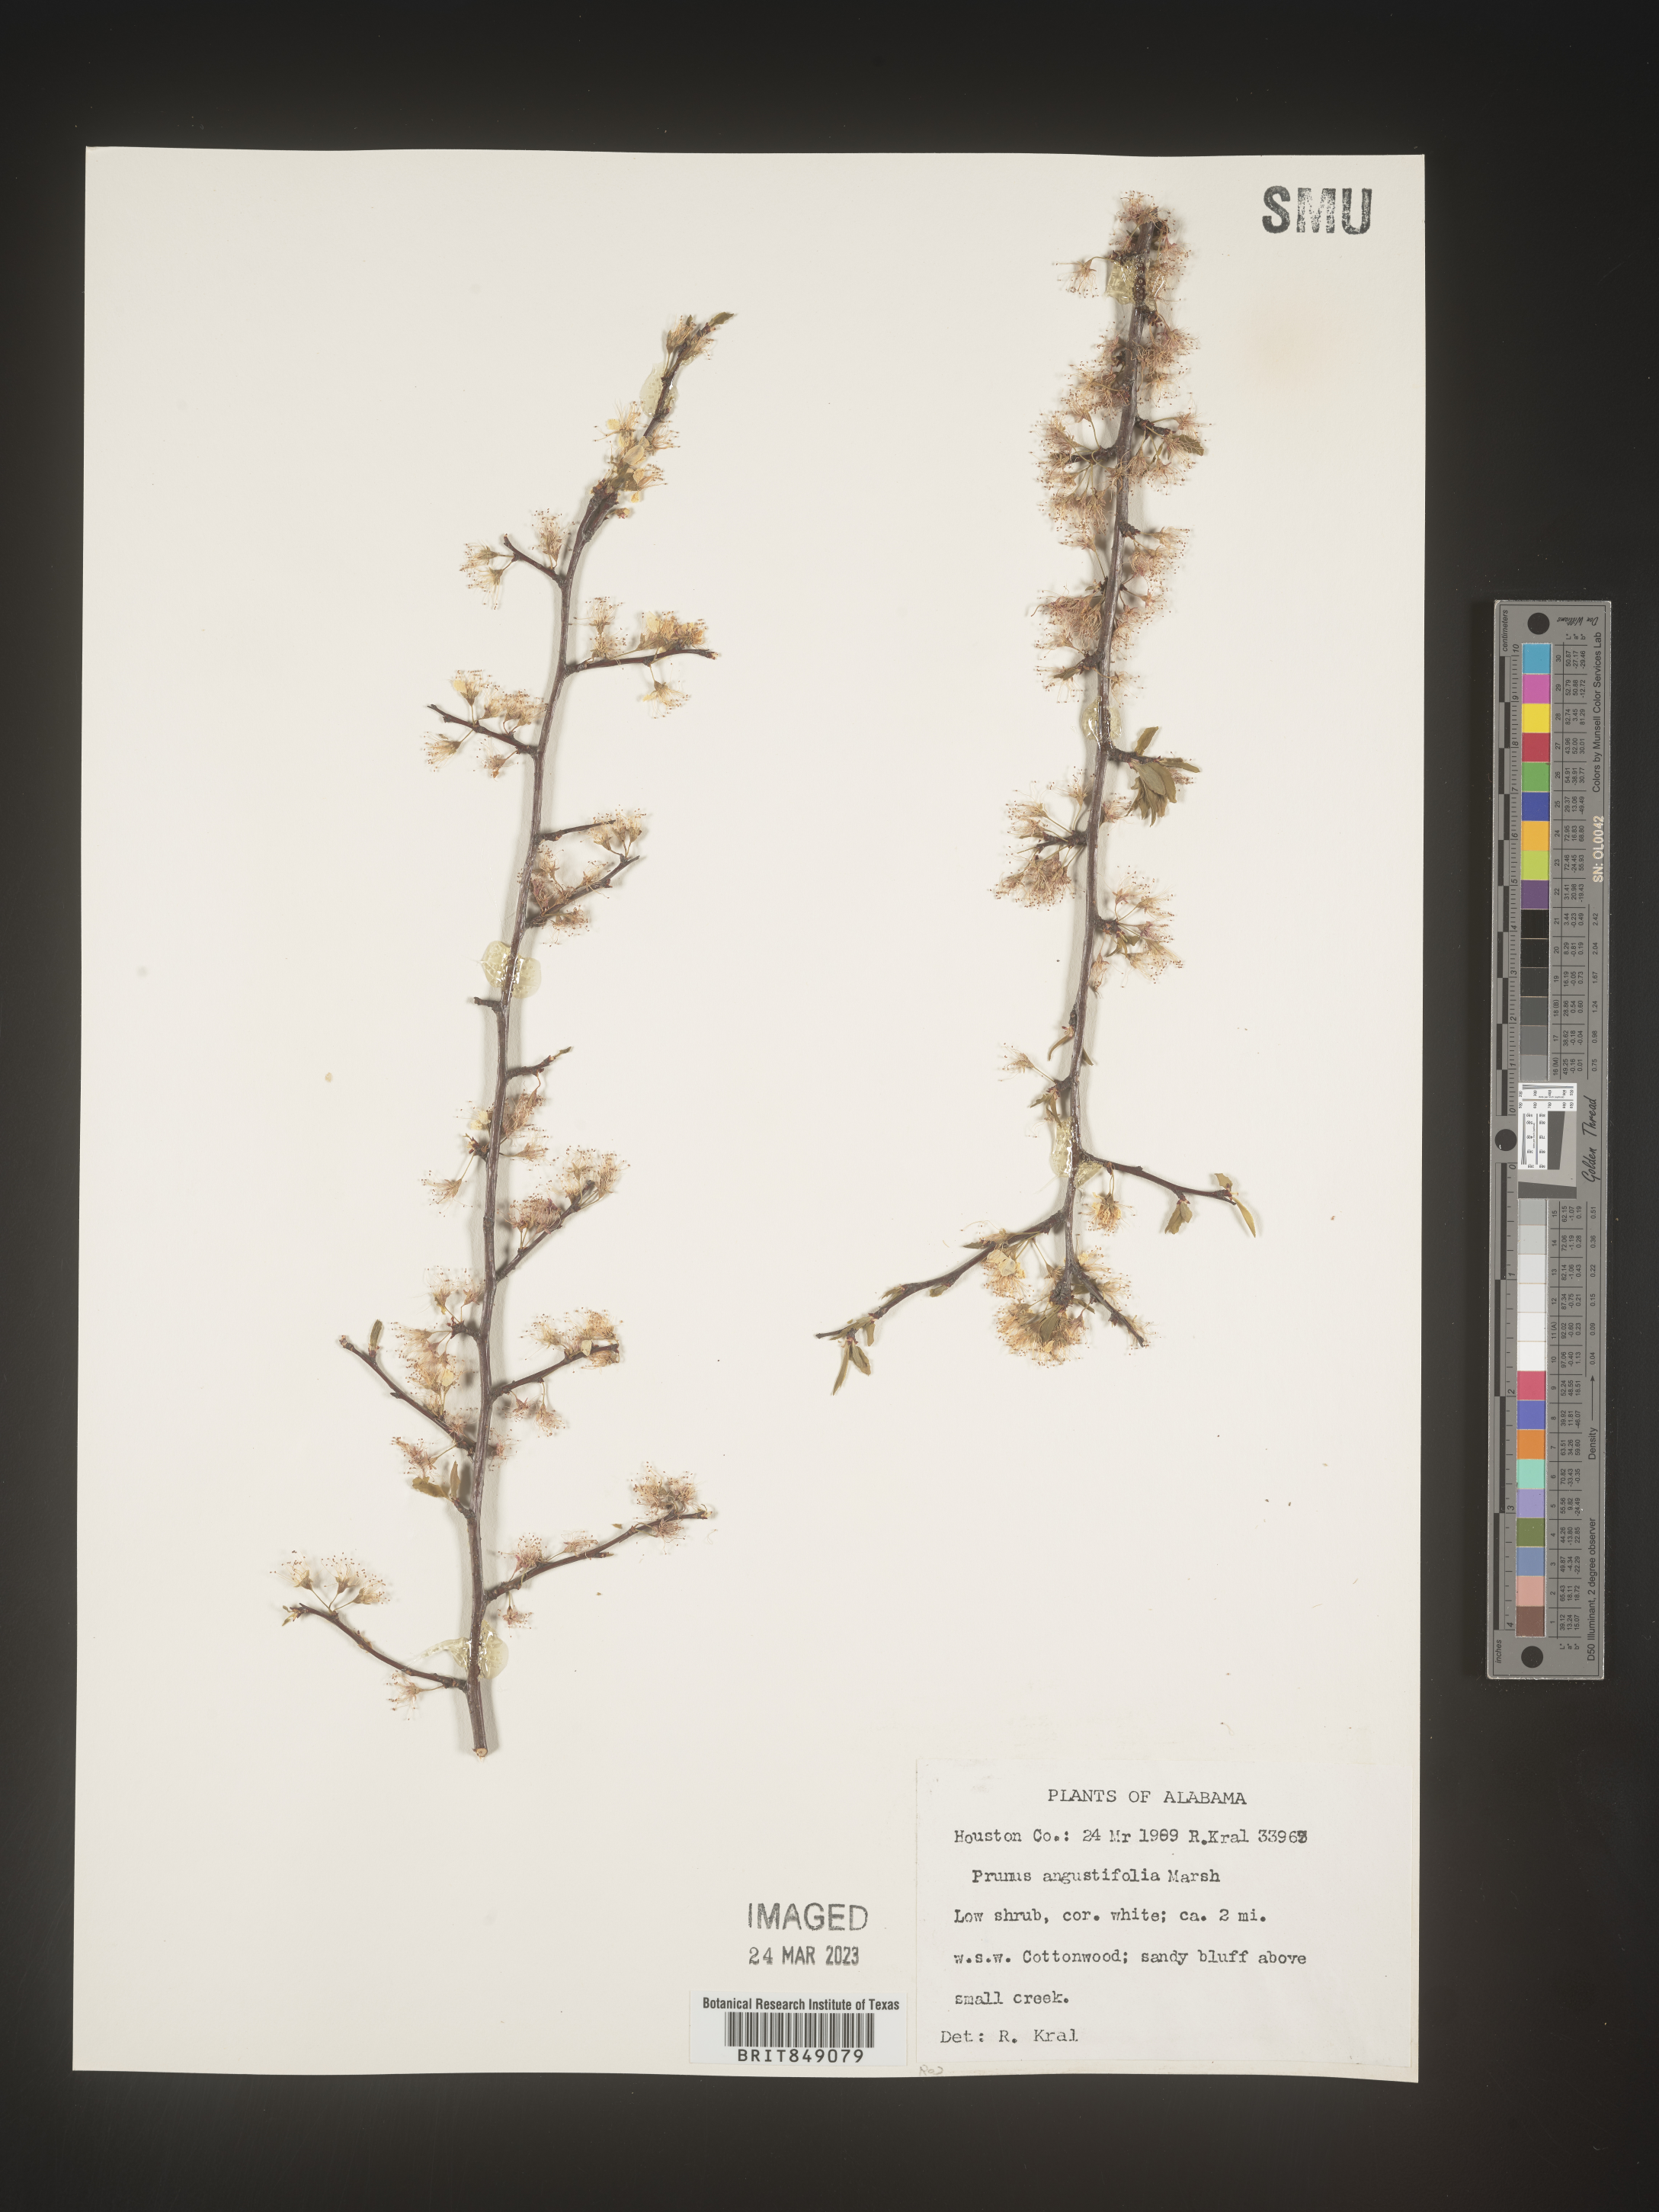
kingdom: Plantae
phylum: Tracheophyta
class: Magnoliopsida
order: Rosales
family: Rosaceae
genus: Prunus
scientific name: Prunus angustifolia
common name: Cherokee plum
